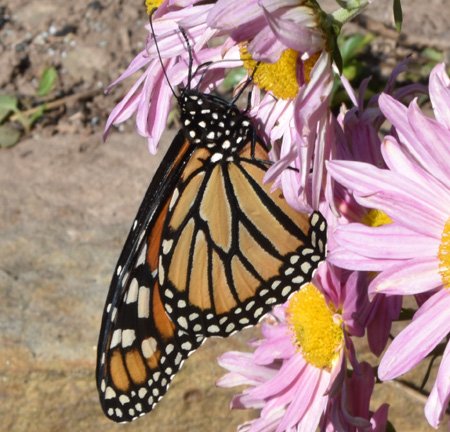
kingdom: Animalia
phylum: Arthropoda
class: Insecta
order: Lepidoptera
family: Nymphalidae
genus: Danaus
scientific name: Danaus plexippus
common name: Monarch
